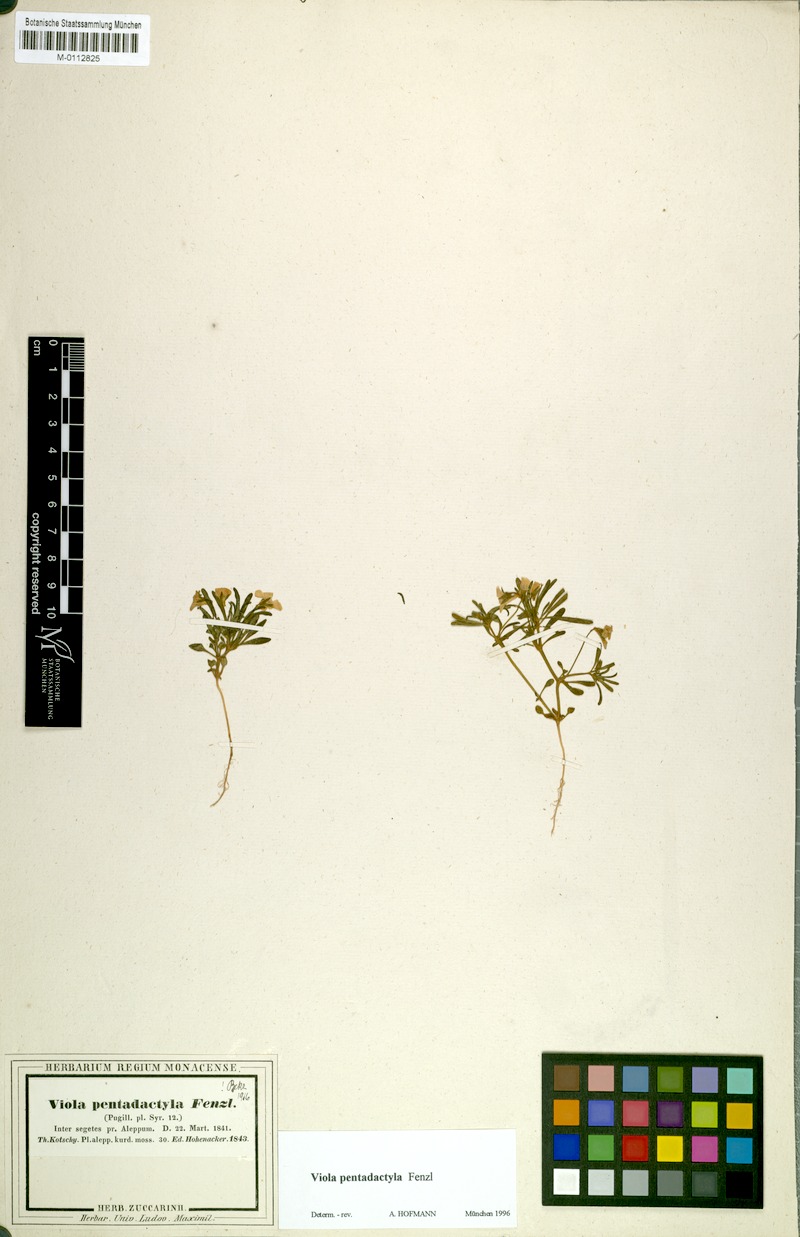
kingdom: Plantae
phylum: Tracheophyta
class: Magnoliopsida
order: Malpighiales
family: Violaceae
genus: Viola
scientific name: Viola pentadactyla
